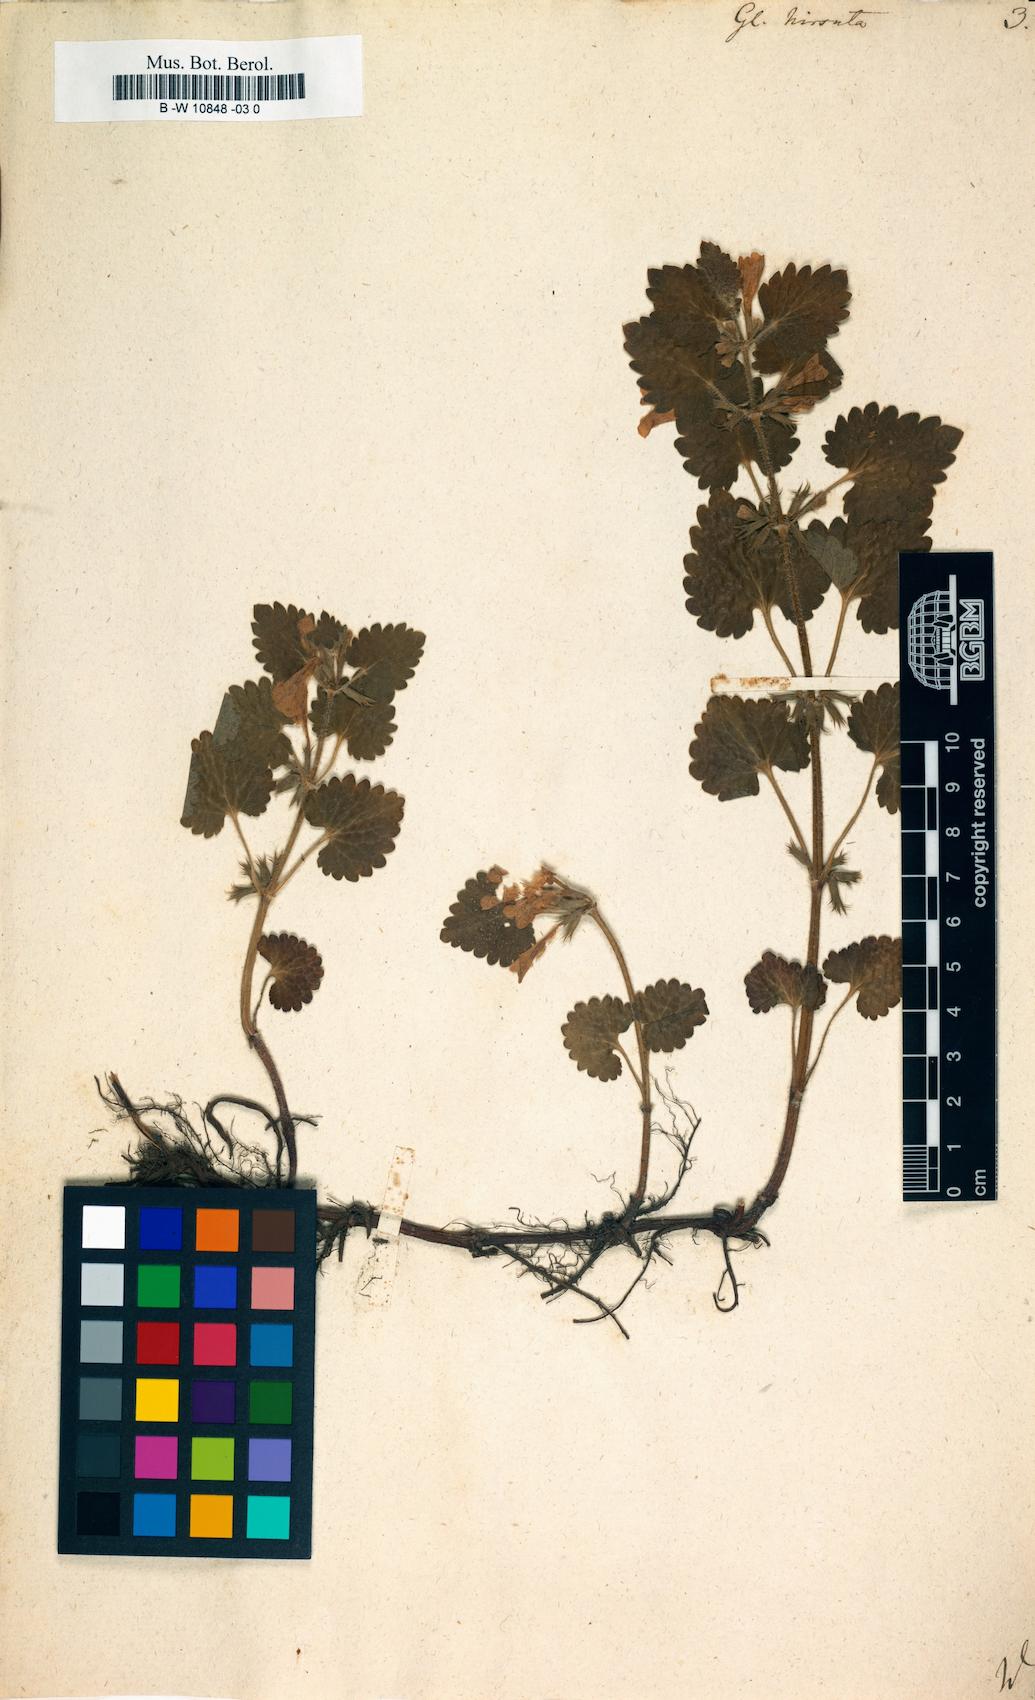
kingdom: Plantae
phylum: Tracheophyta
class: Magnoliopsida
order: Lamiales
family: Lamiaceae
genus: Glechoma
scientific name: Glechoma hirsuta
